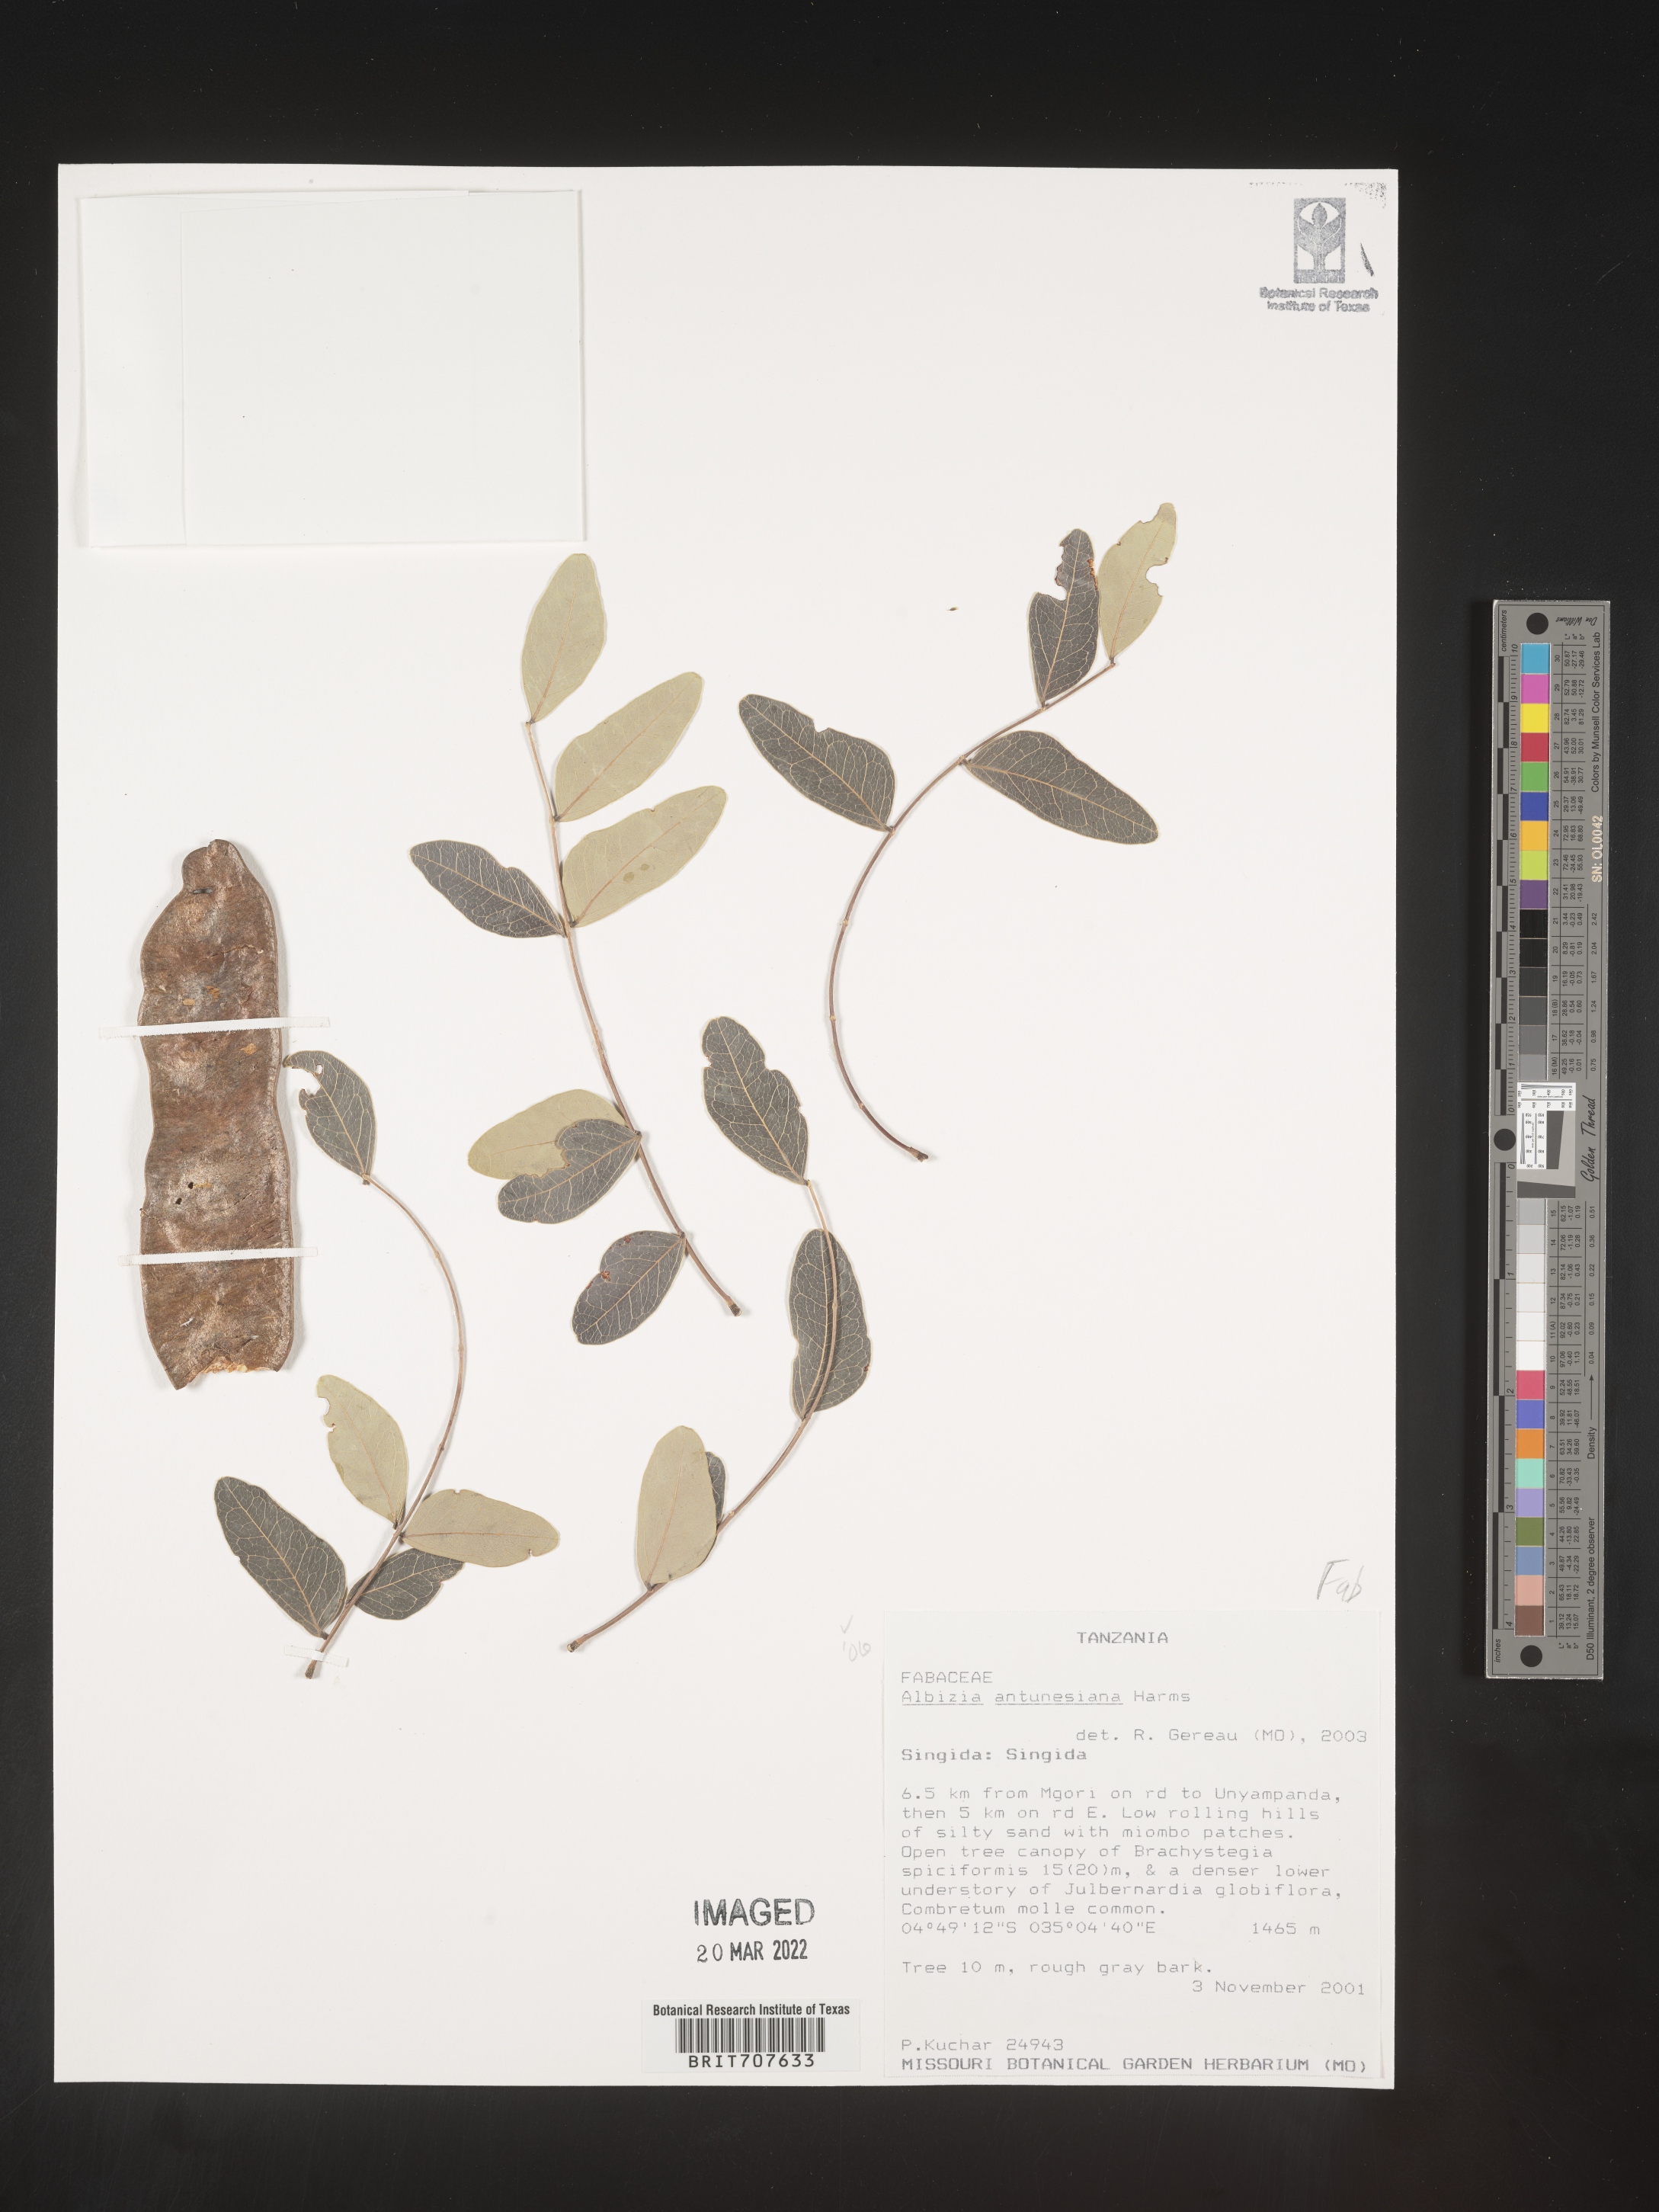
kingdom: Plantae
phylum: Tracheophyta
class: Magnoliopsida
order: Fabales
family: Fabaceae
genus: Albizia
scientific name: Albizia
